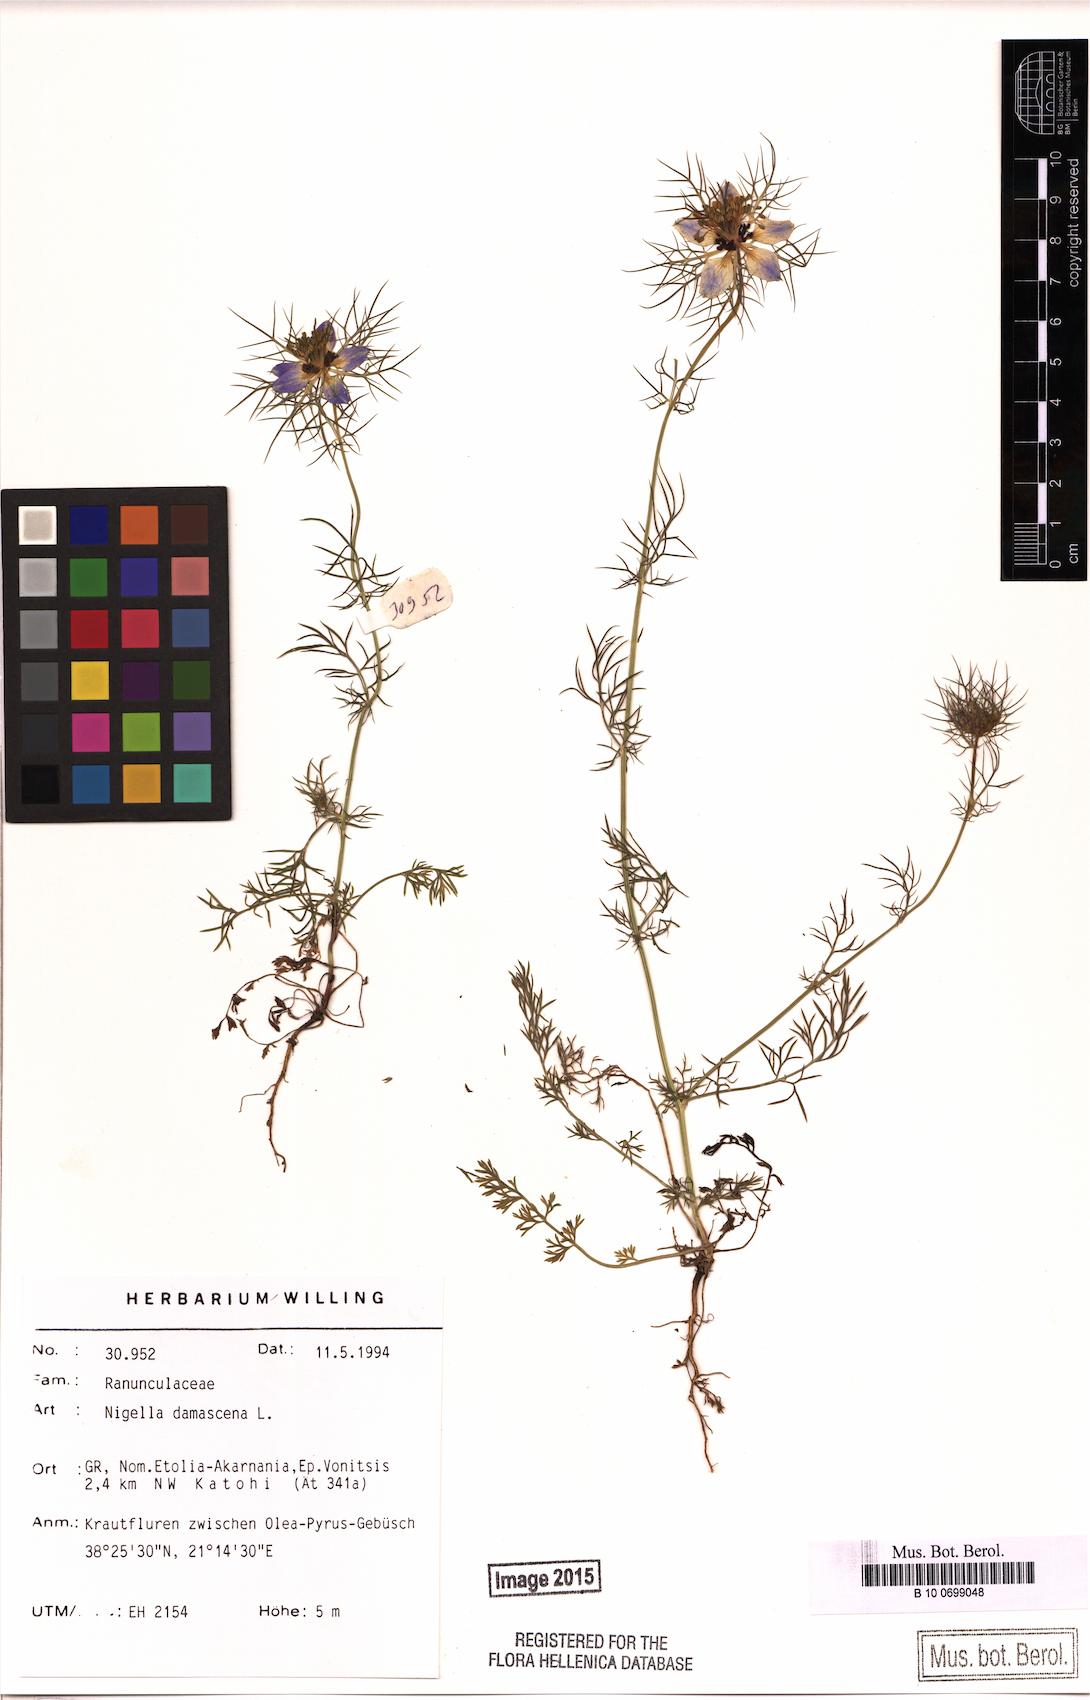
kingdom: Plantae
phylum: Tracheophyta
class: Magnoliopsida
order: Ranunculales
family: Ranunculaceae
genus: Nigella
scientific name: Nigella damascena
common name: Love-in-a-mist
